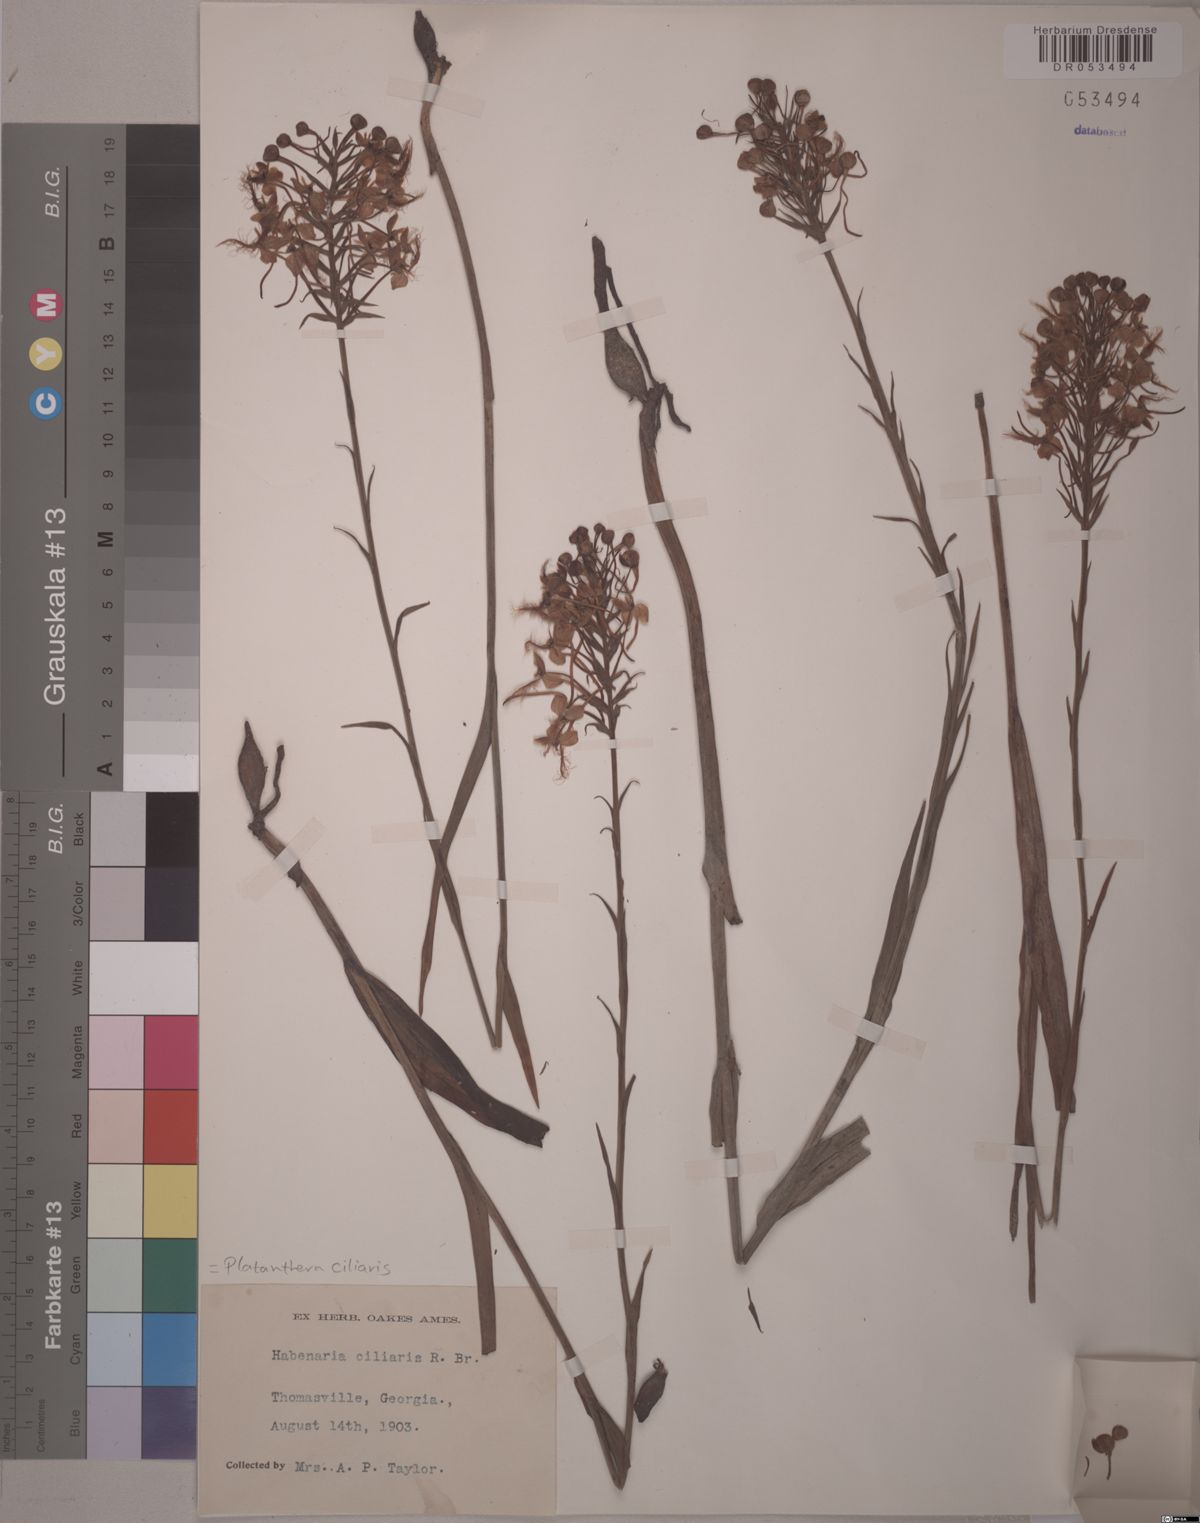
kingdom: Plantae
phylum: Tracheophyta
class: Liliopsida
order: Asparagales
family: Orchidaceae
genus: Platanthera
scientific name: Platanthera ciliaris
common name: Yellow fringed orchid
